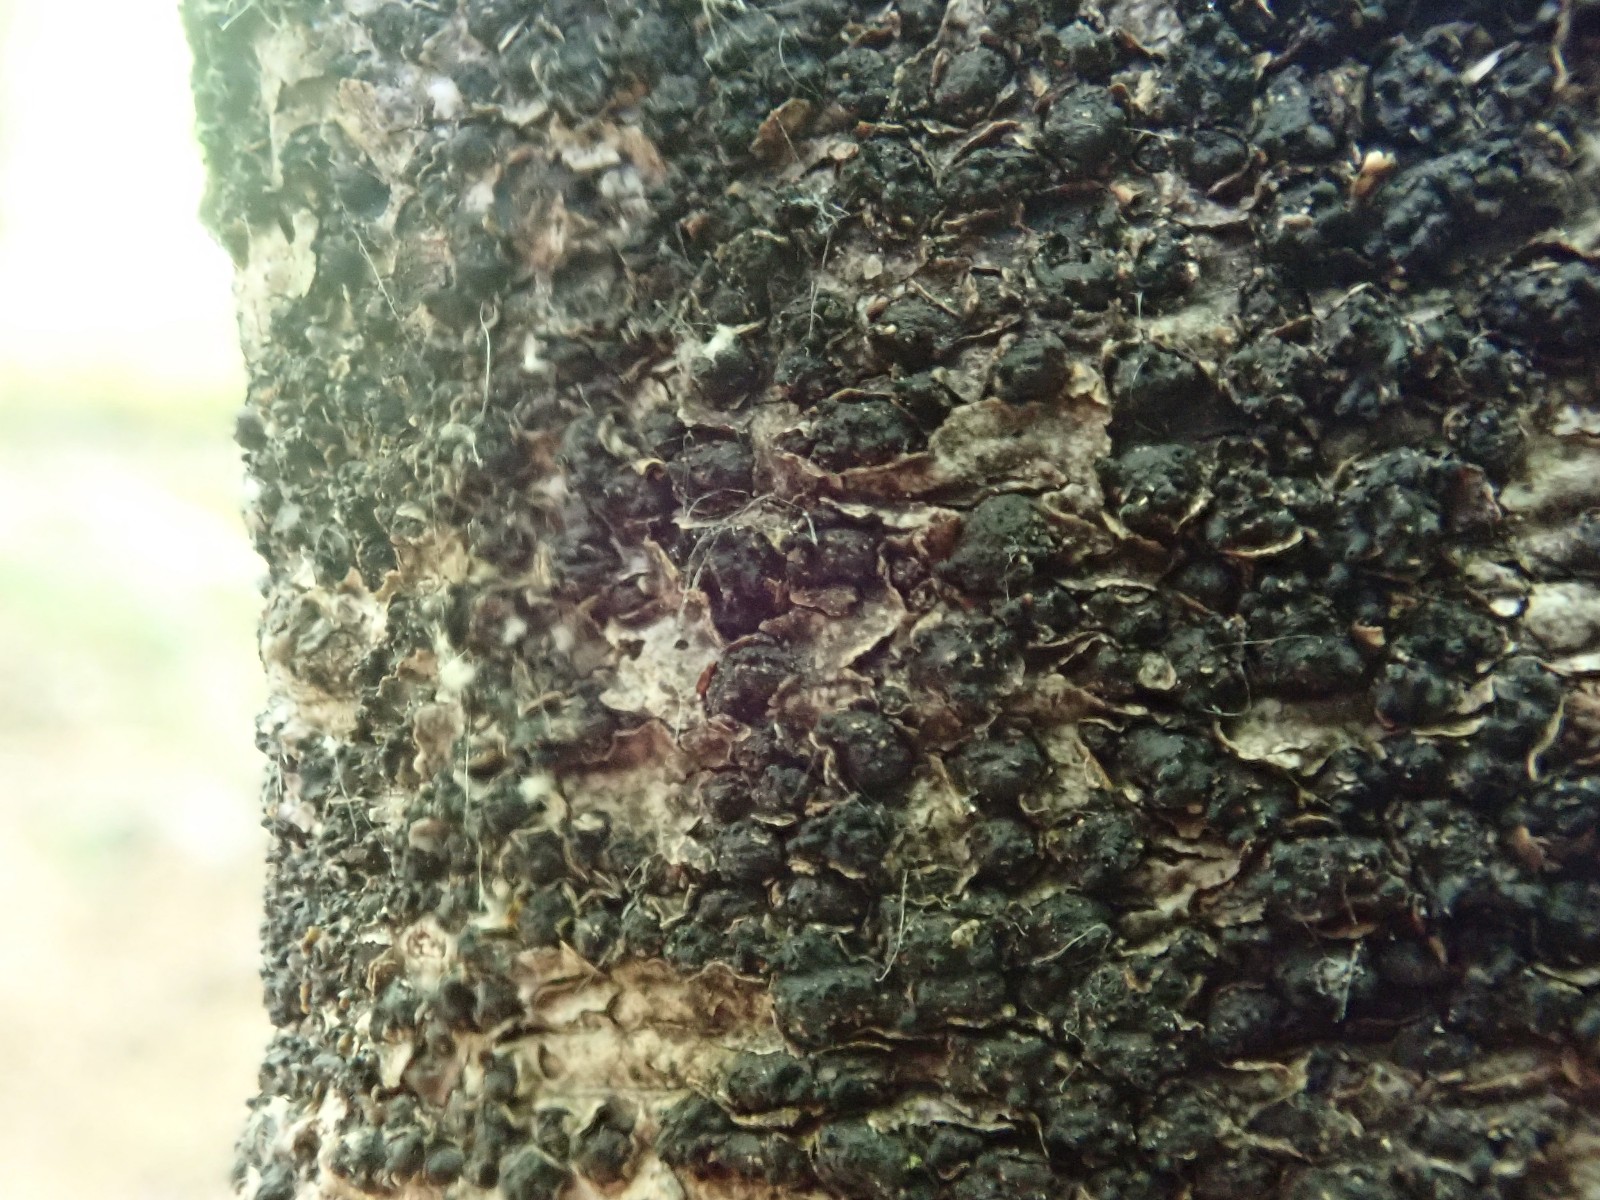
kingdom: Fungi
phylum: Ascomycota
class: Sordariomycetes
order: Xylariales
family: Melogrammataceae
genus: Melogramma
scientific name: Melogramma spiniferum
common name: bøgefod-kulhals
